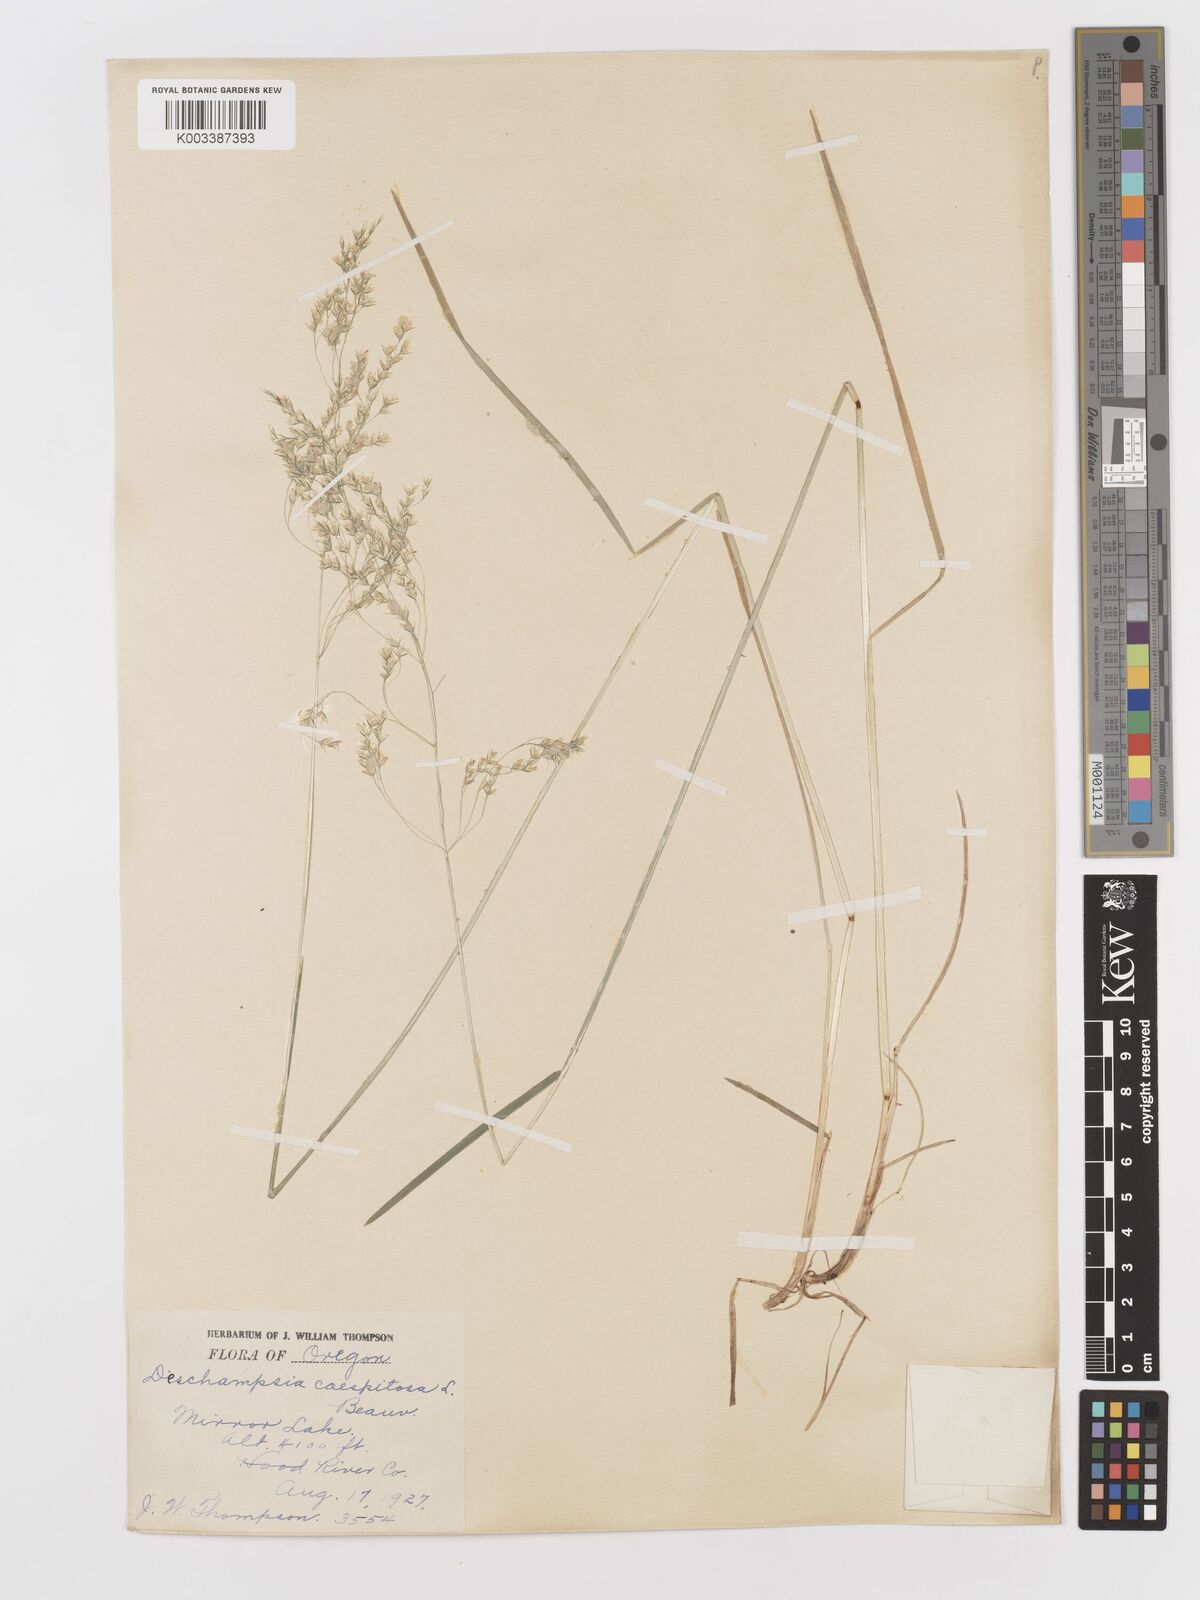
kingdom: Plantae
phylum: Tracheophyta
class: Liliopsida
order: Poales
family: Poaceae
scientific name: Poaceae
